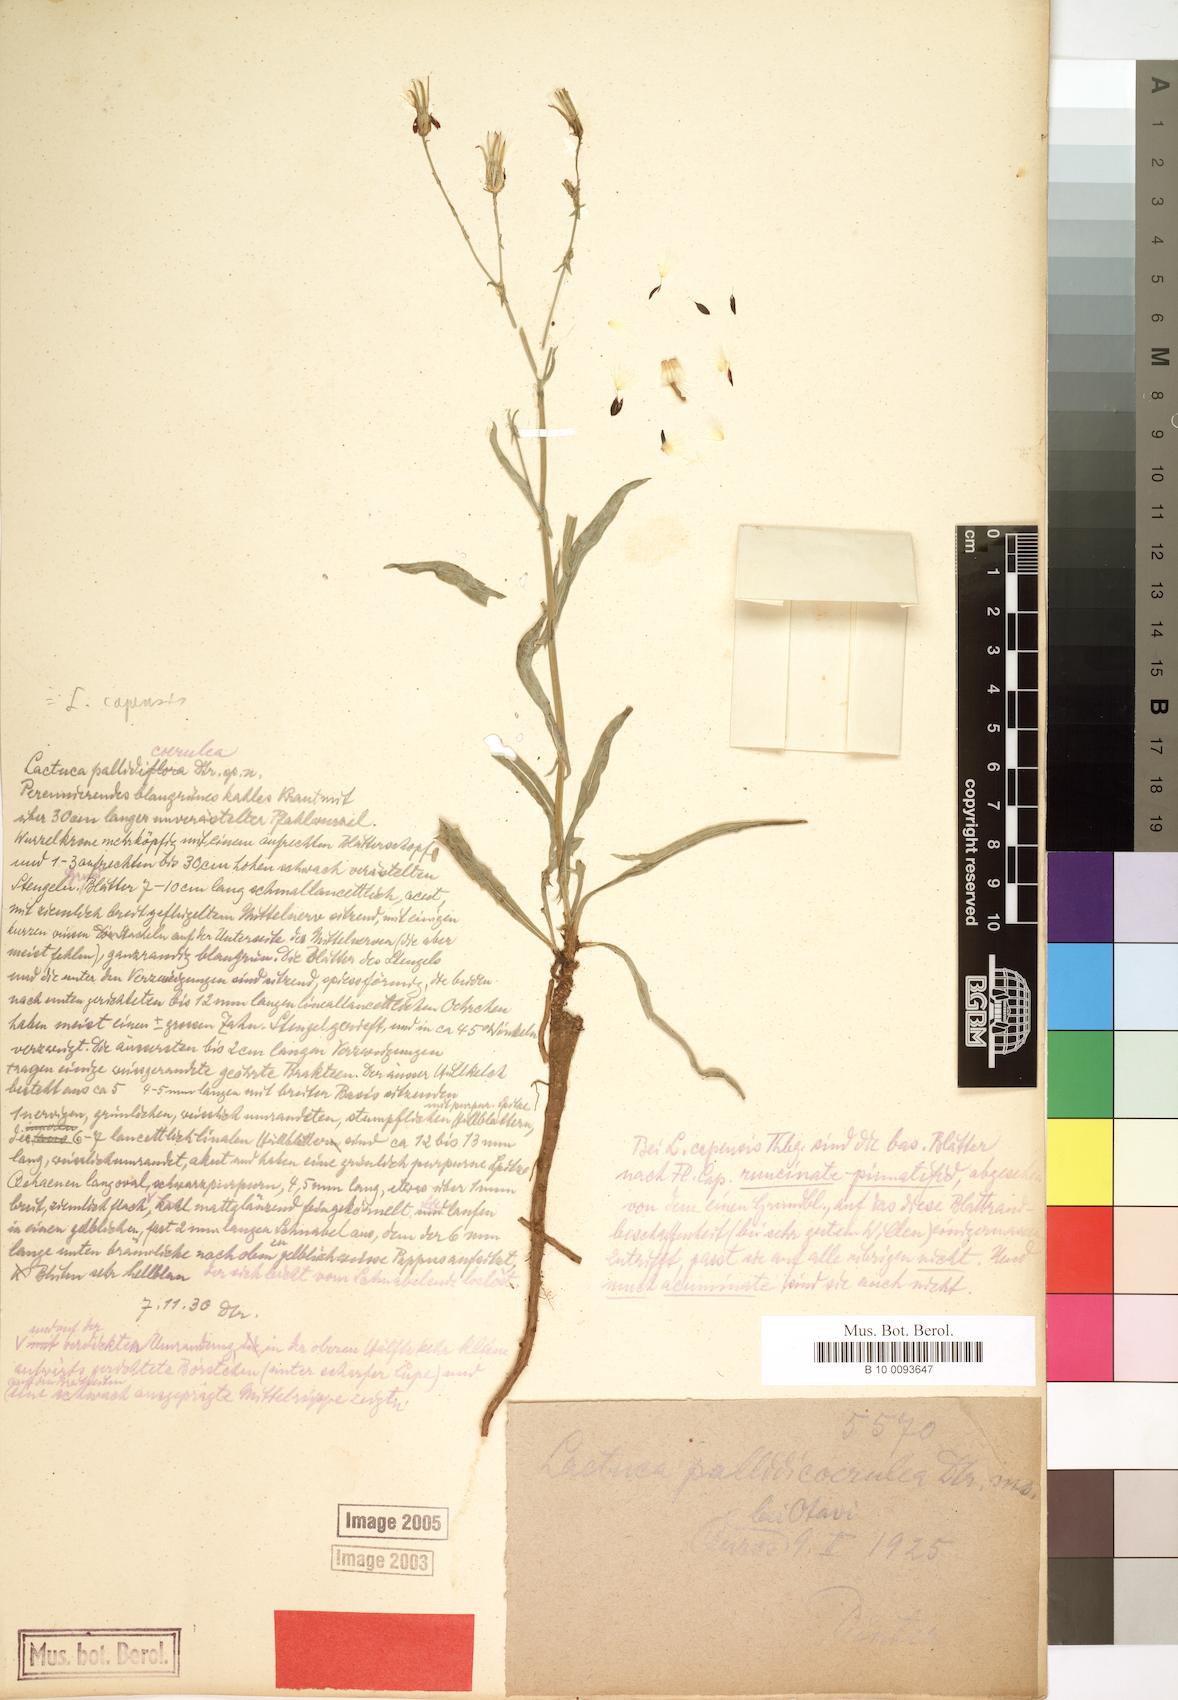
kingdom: Plantae
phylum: Tracheophyta
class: Magnoliopsida
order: Asterales
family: Asteraceae
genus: Lactuca
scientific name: Lactuca inermis
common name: Wild lettuce
